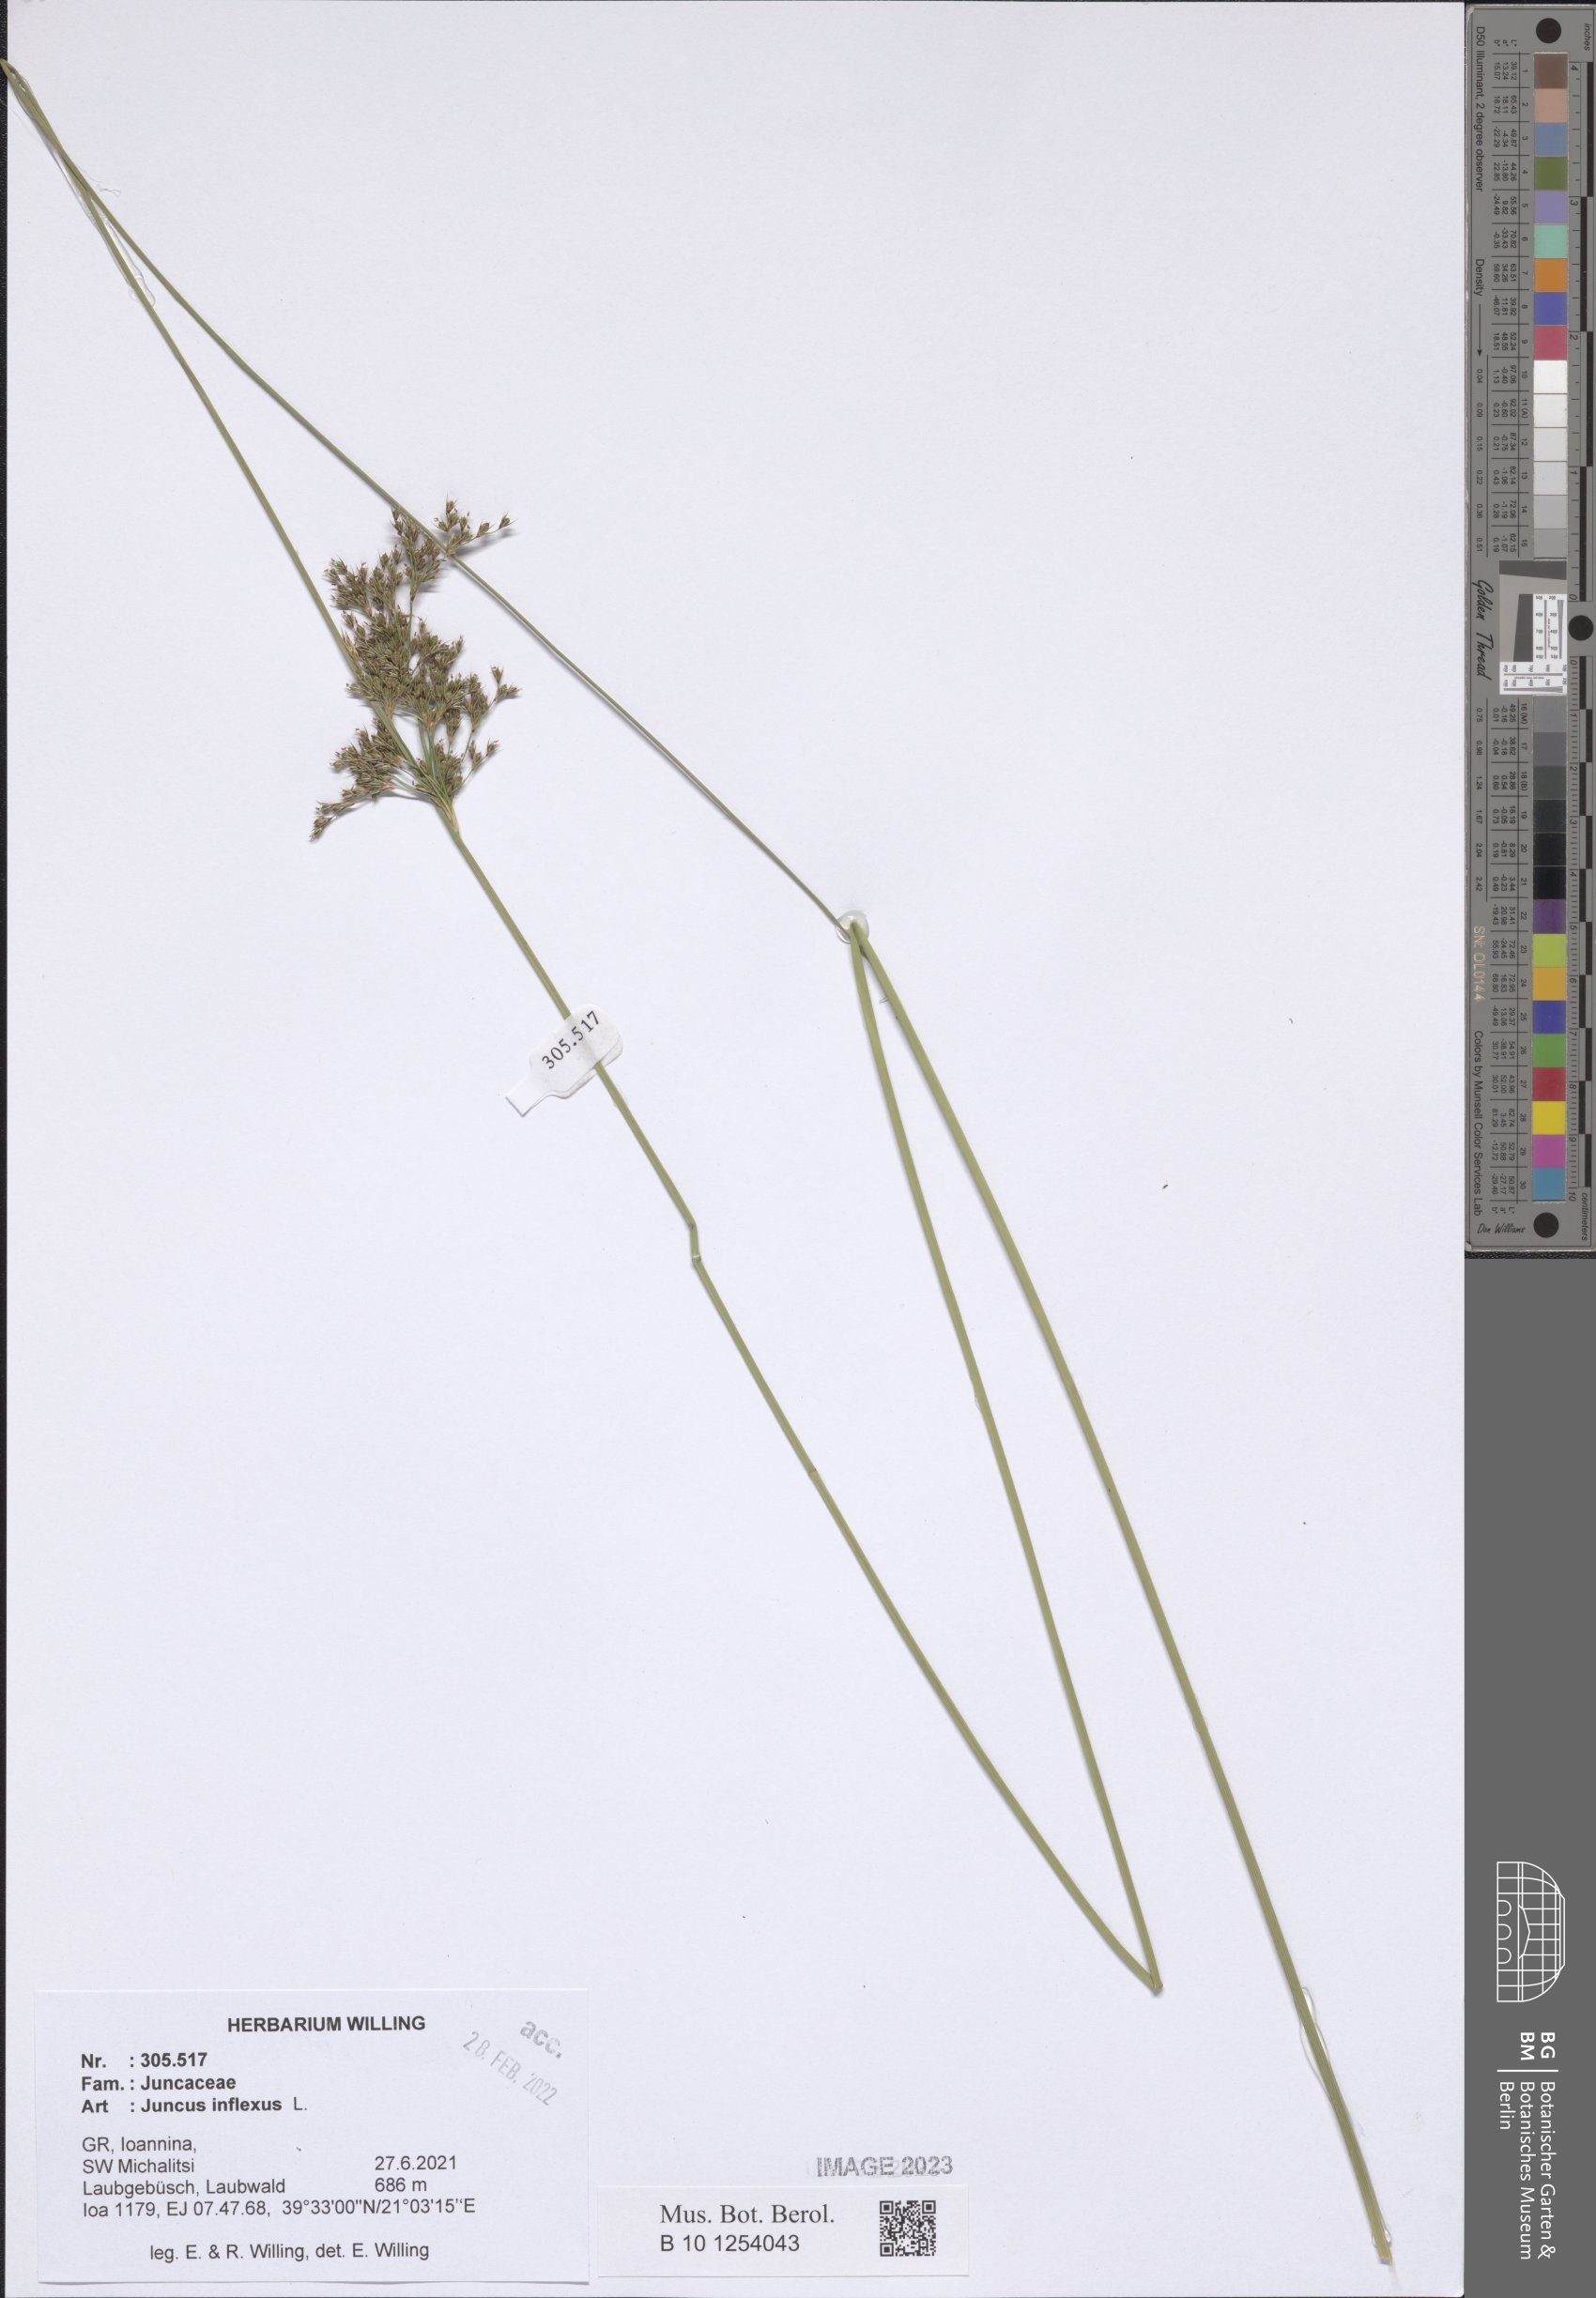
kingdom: Plantae
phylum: Tracheophyta
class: Liliopsida
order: Poales
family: Juncaceae
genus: Juncus
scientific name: Juncus inflexus
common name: Hard rush
